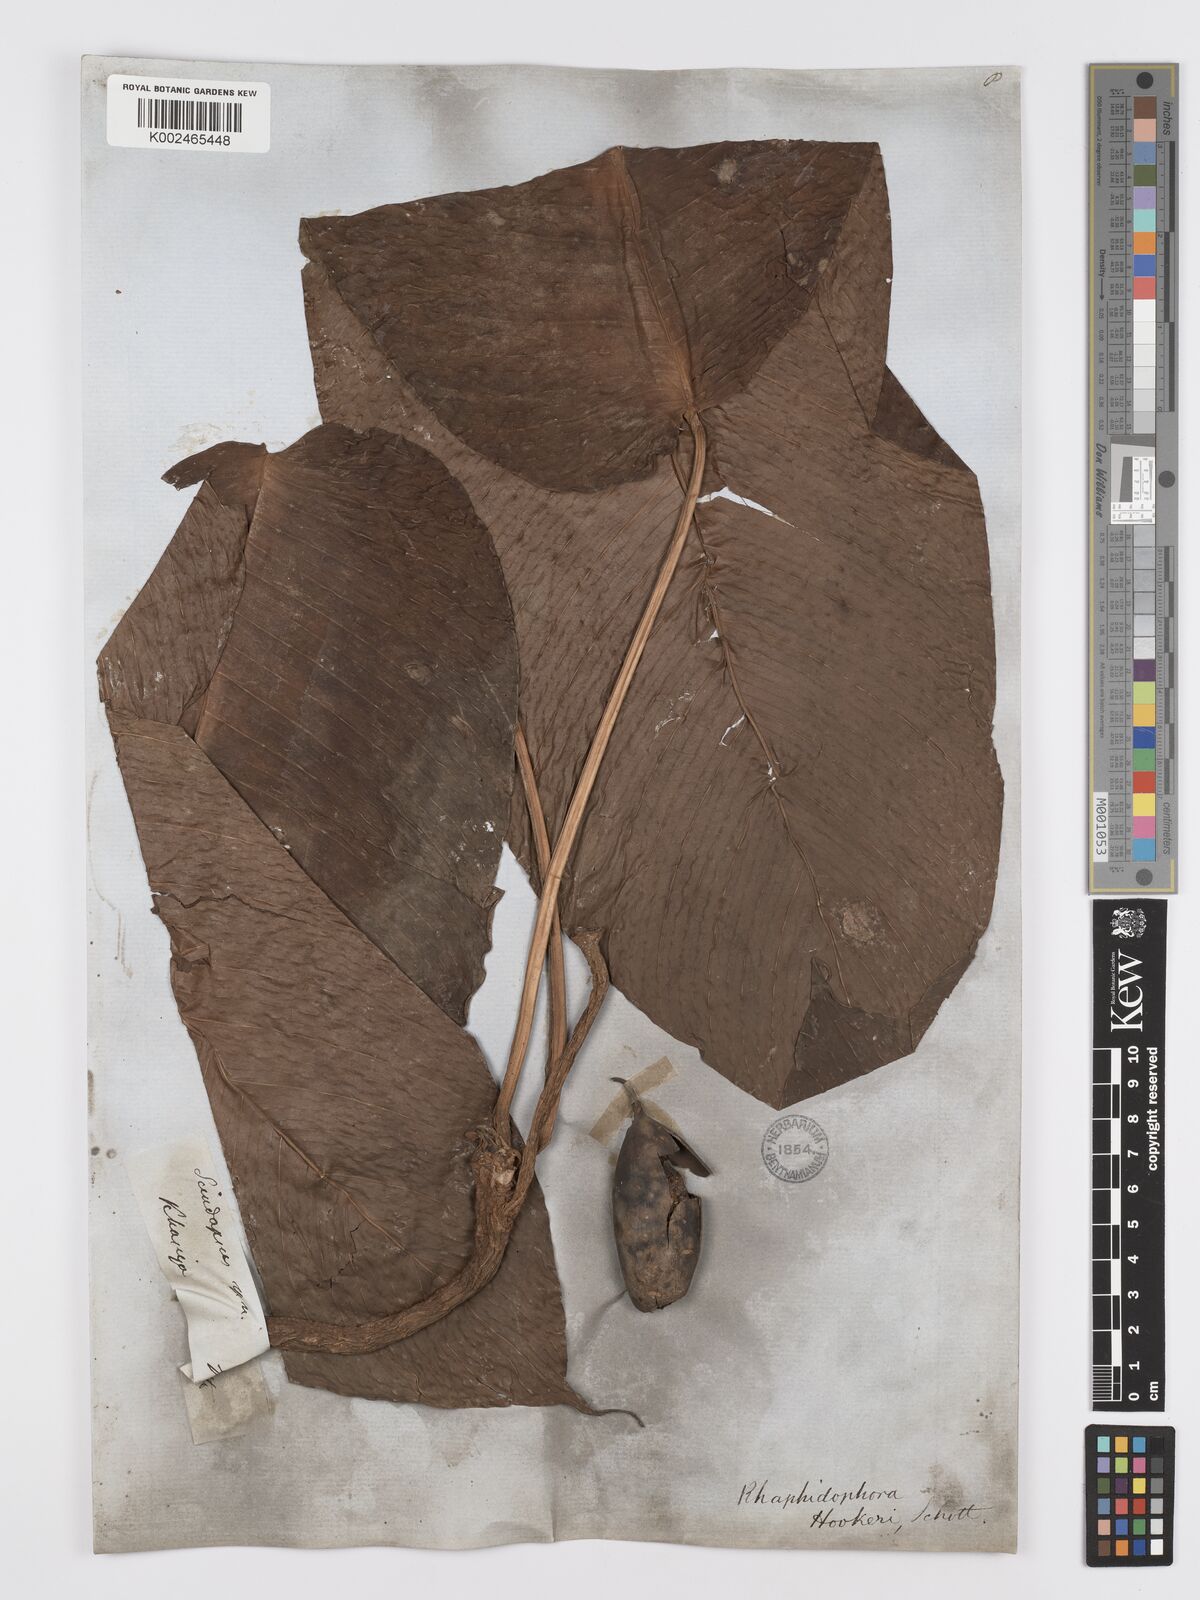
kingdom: Plantae
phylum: Tracheophyta
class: Liliopsida
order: Alismatales
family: Araceae
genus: Rhaphidophora
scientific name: Rhaphidophora hookeri
